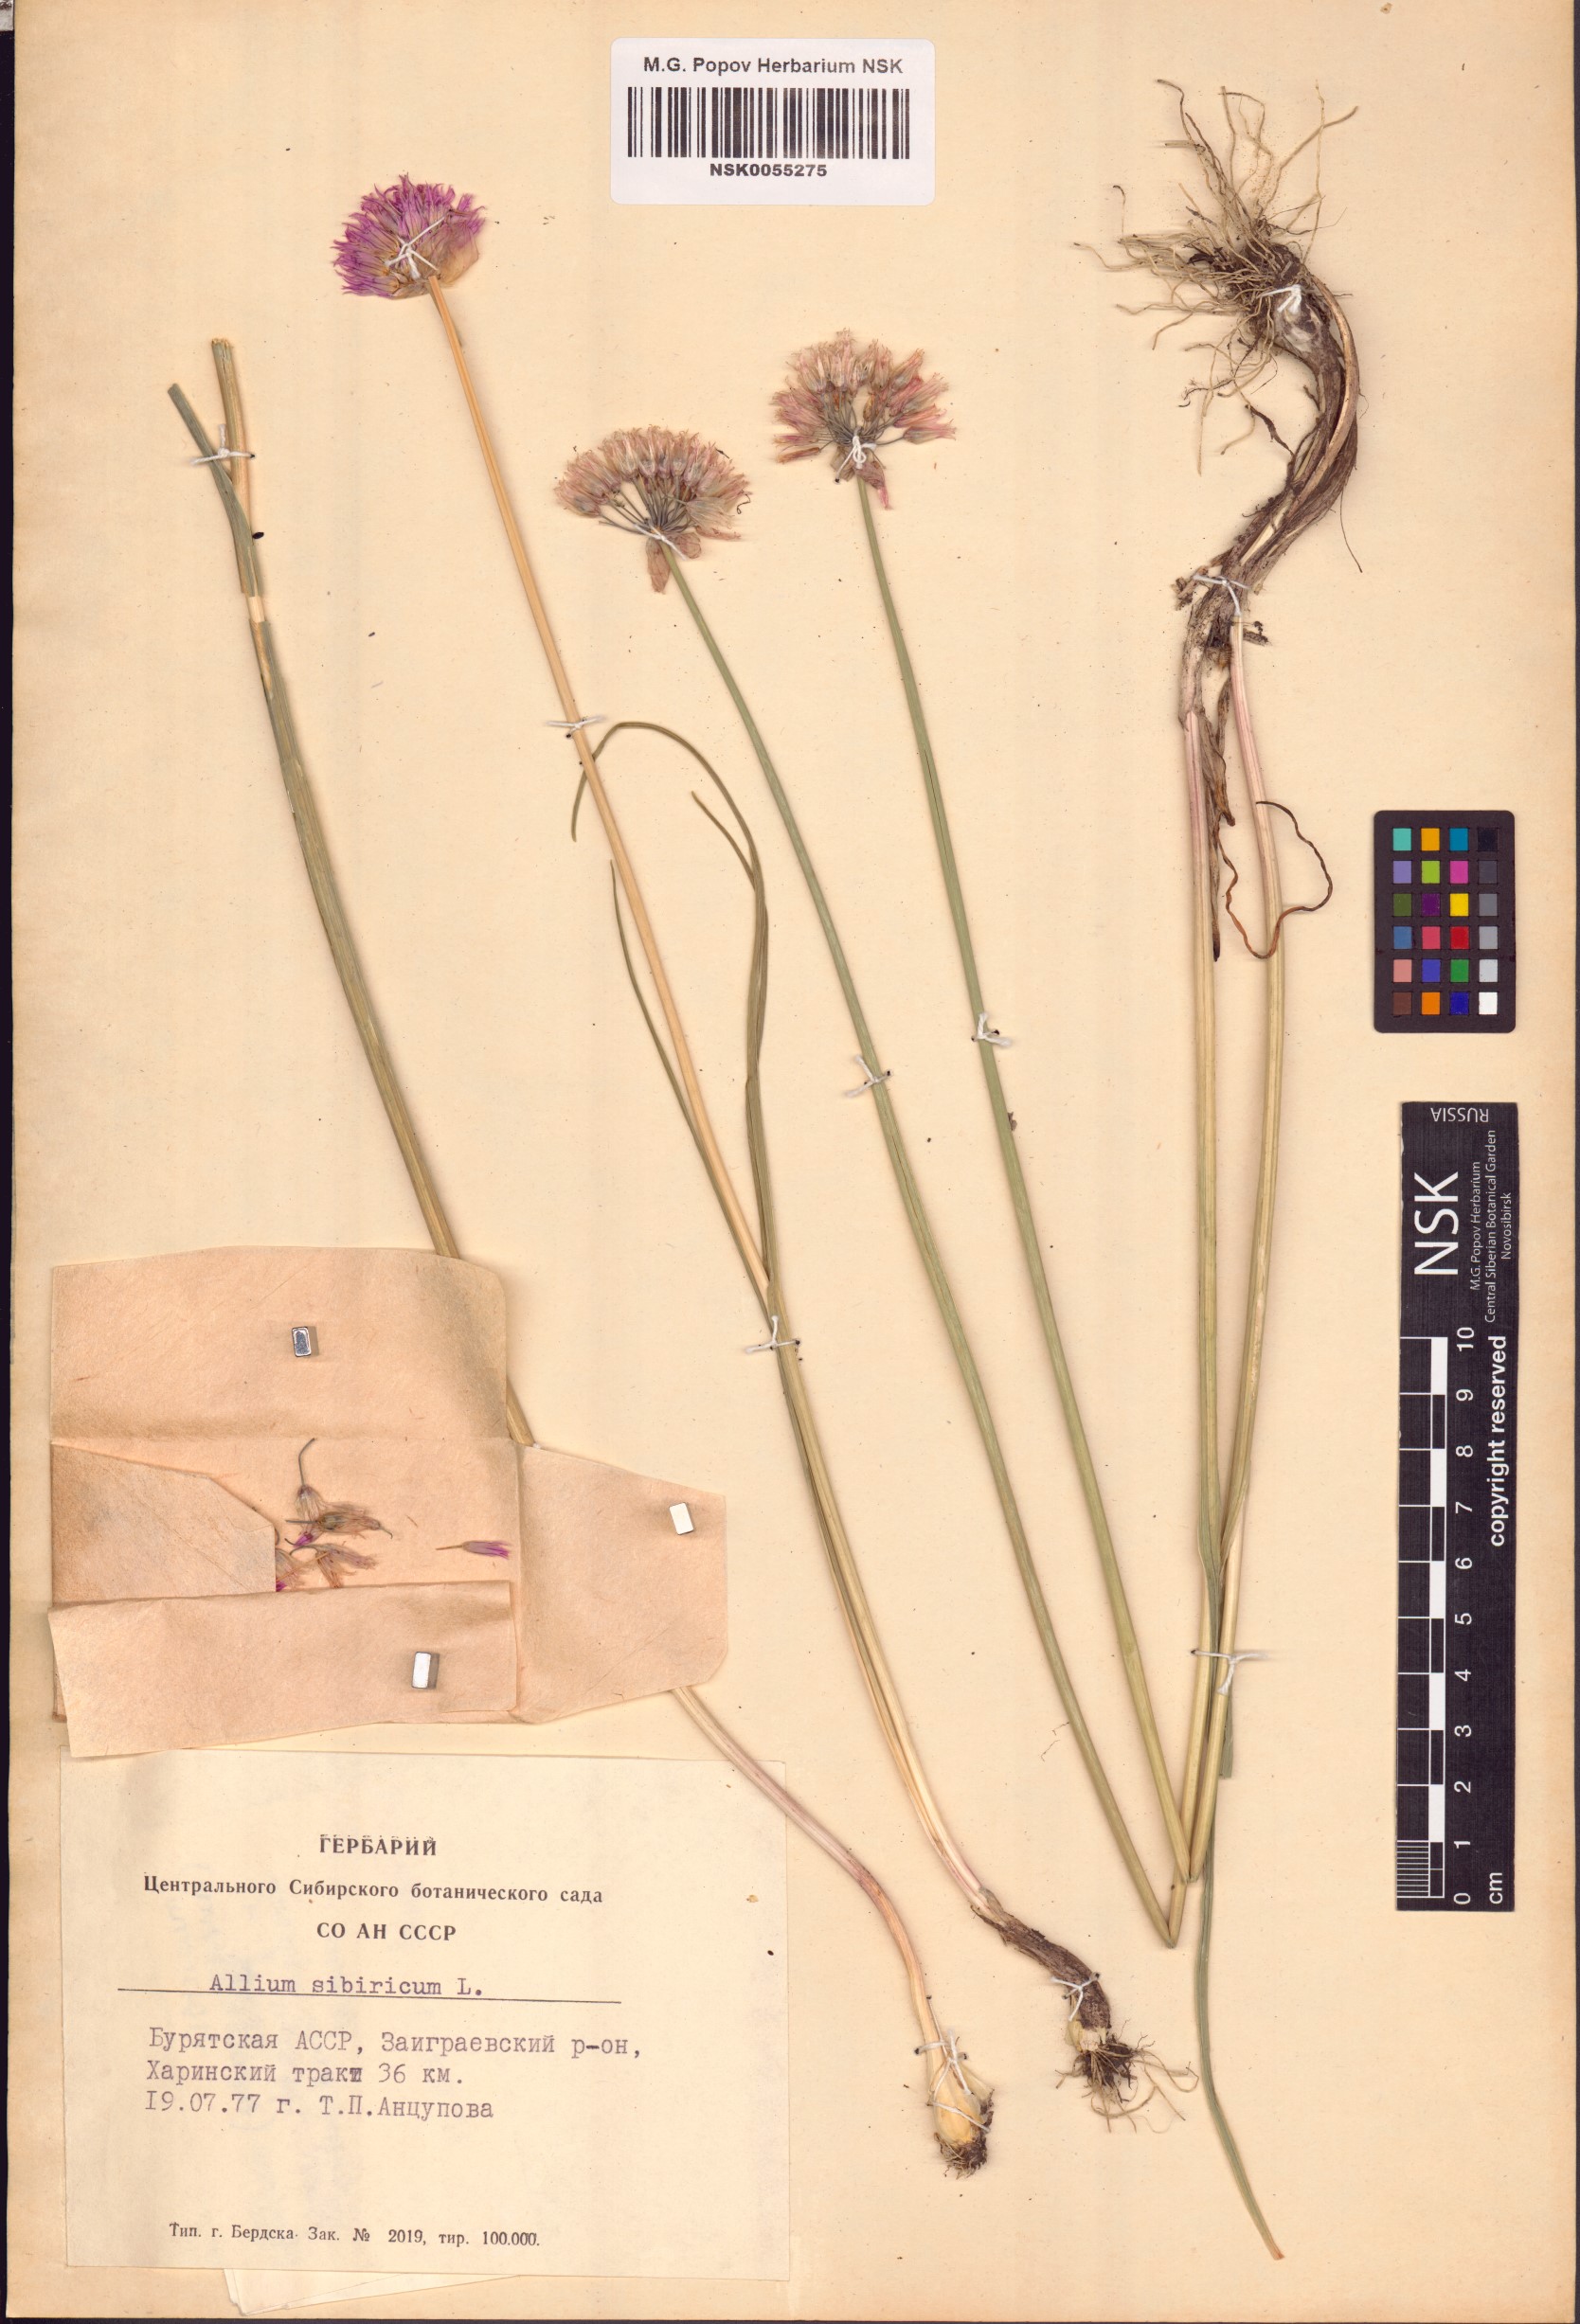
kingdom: Plantae
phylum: Tracheophyta
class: Liliopsida
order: Asparagales
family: Amaryllidaceae
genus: Allium
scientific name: Allium schoenoprasum
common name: Chives
